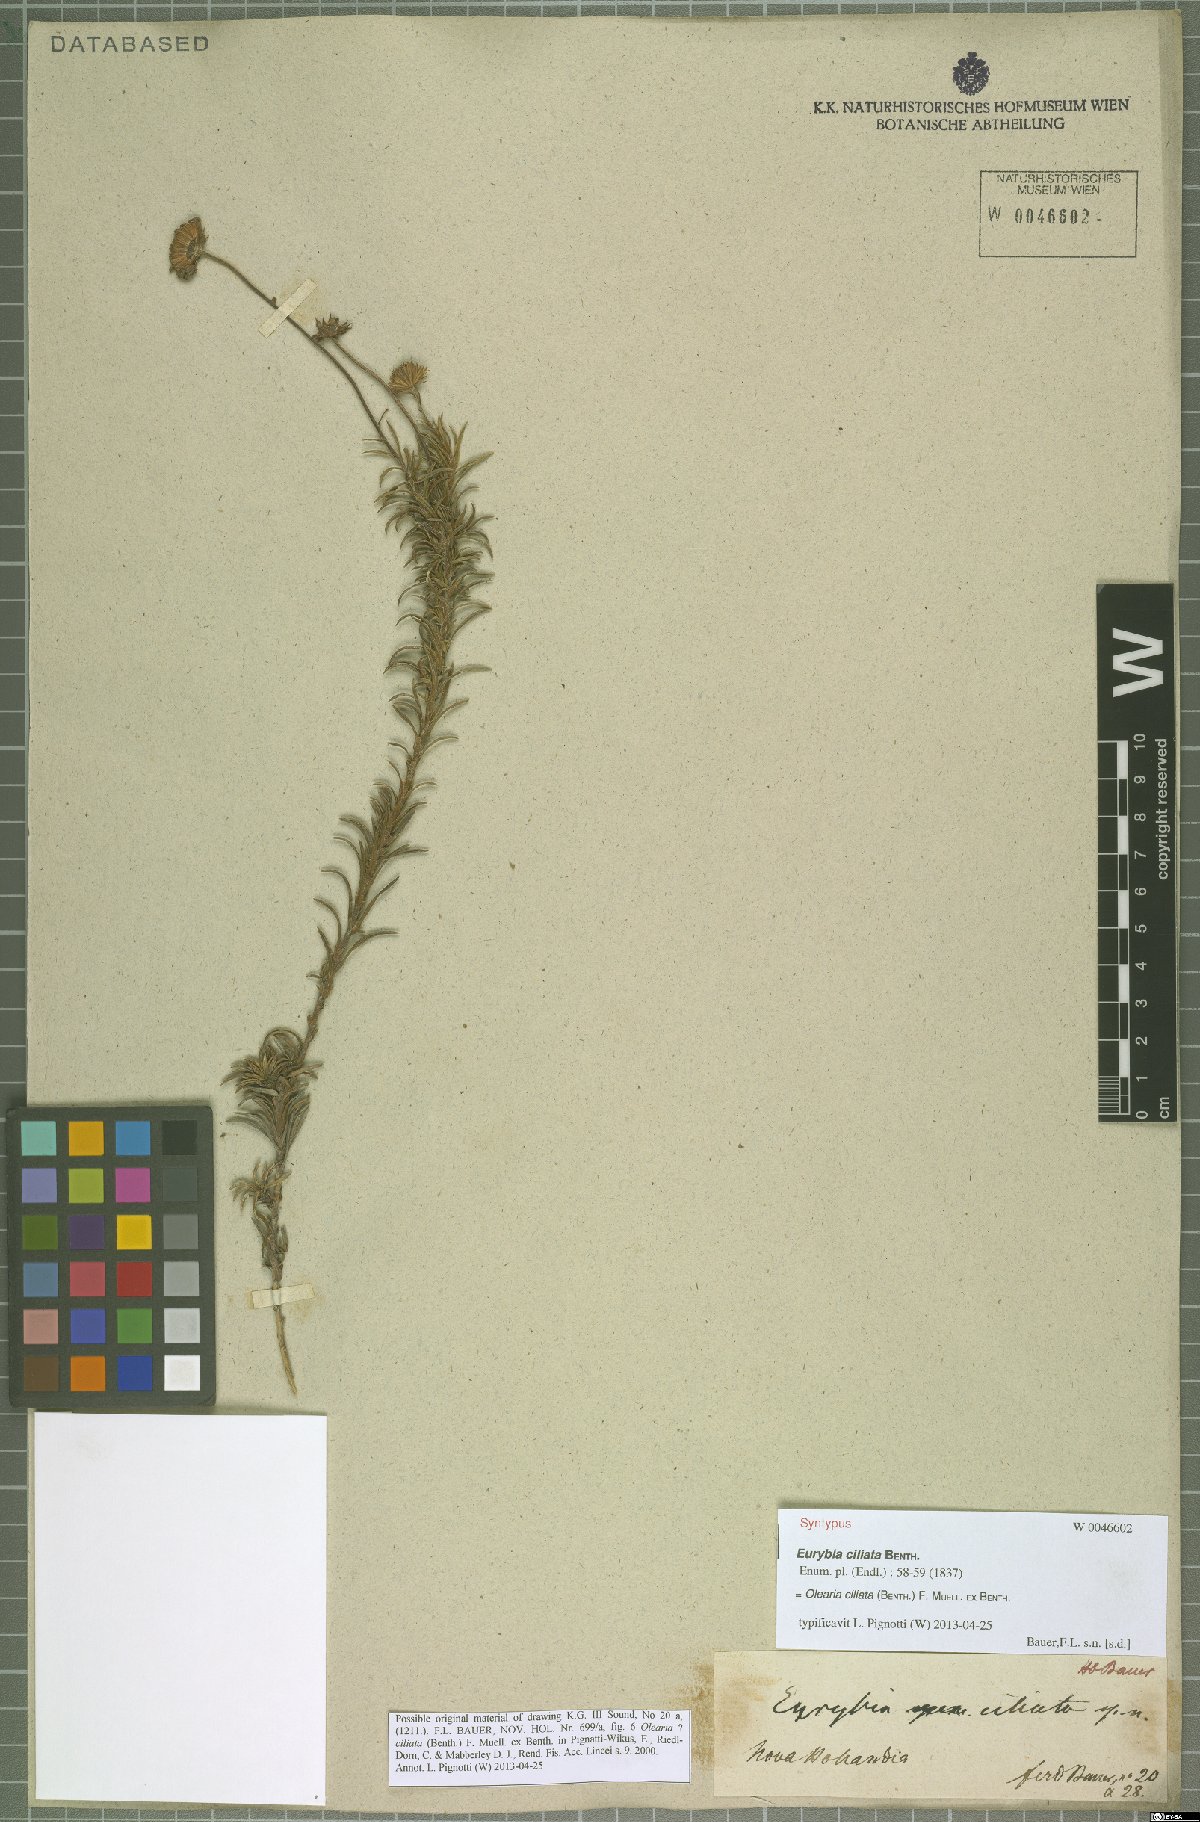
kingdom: Plantae
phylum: Tracheophyta
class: Magnoliopsida
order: Asterales
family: Asteraceae
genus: Vicinia
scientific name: Vicinia ciliata
